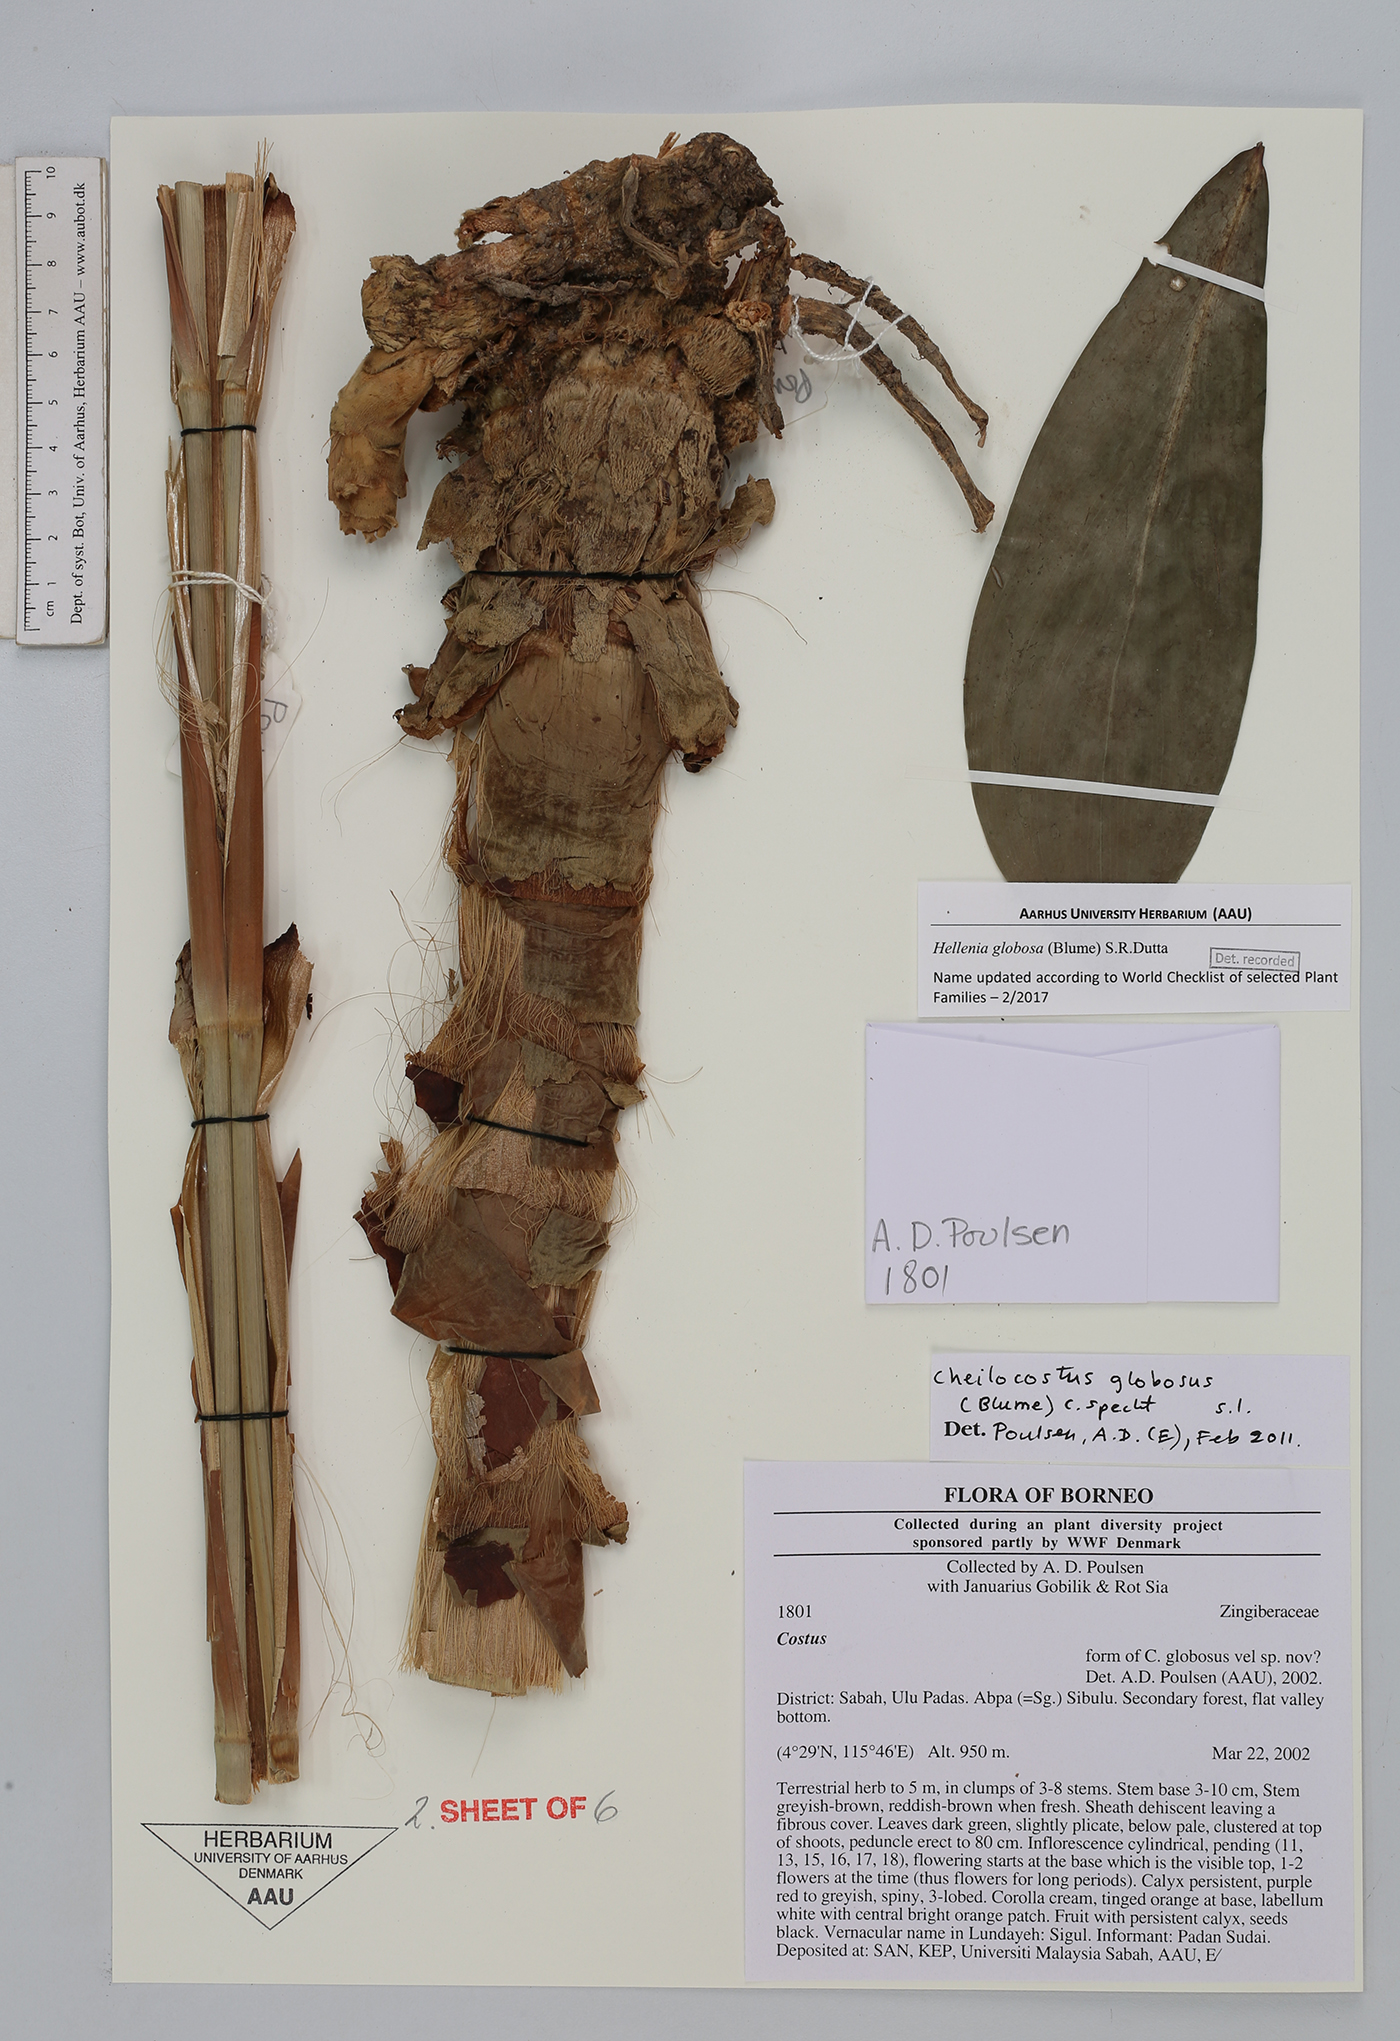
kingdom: Plantae
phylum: Tracheophyta
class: Liliopsida
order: Zingiberales
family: Costaceae
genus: Hellenia
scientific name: Hellenia globosa
